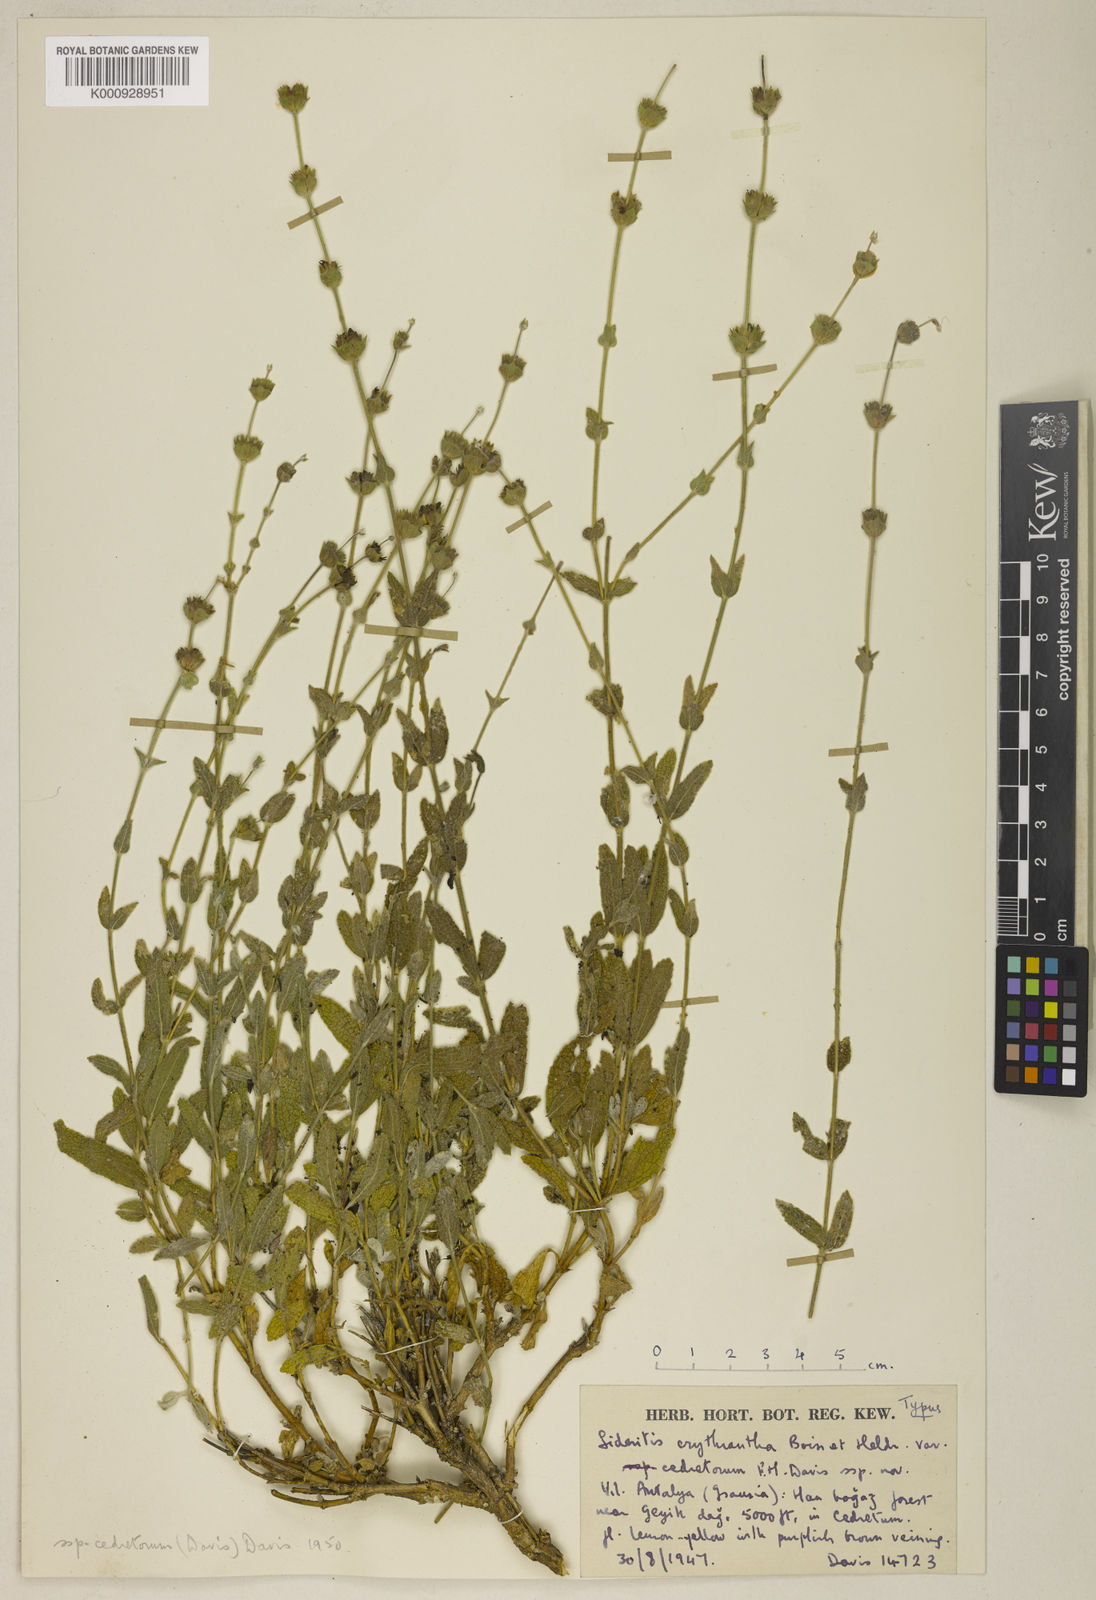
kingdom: Plantae
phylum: Tracheophyta
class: Magnoliopsida
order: Lamiales
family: Lamiaceae
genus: Sideritis
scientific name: Sideritis erythrantha
